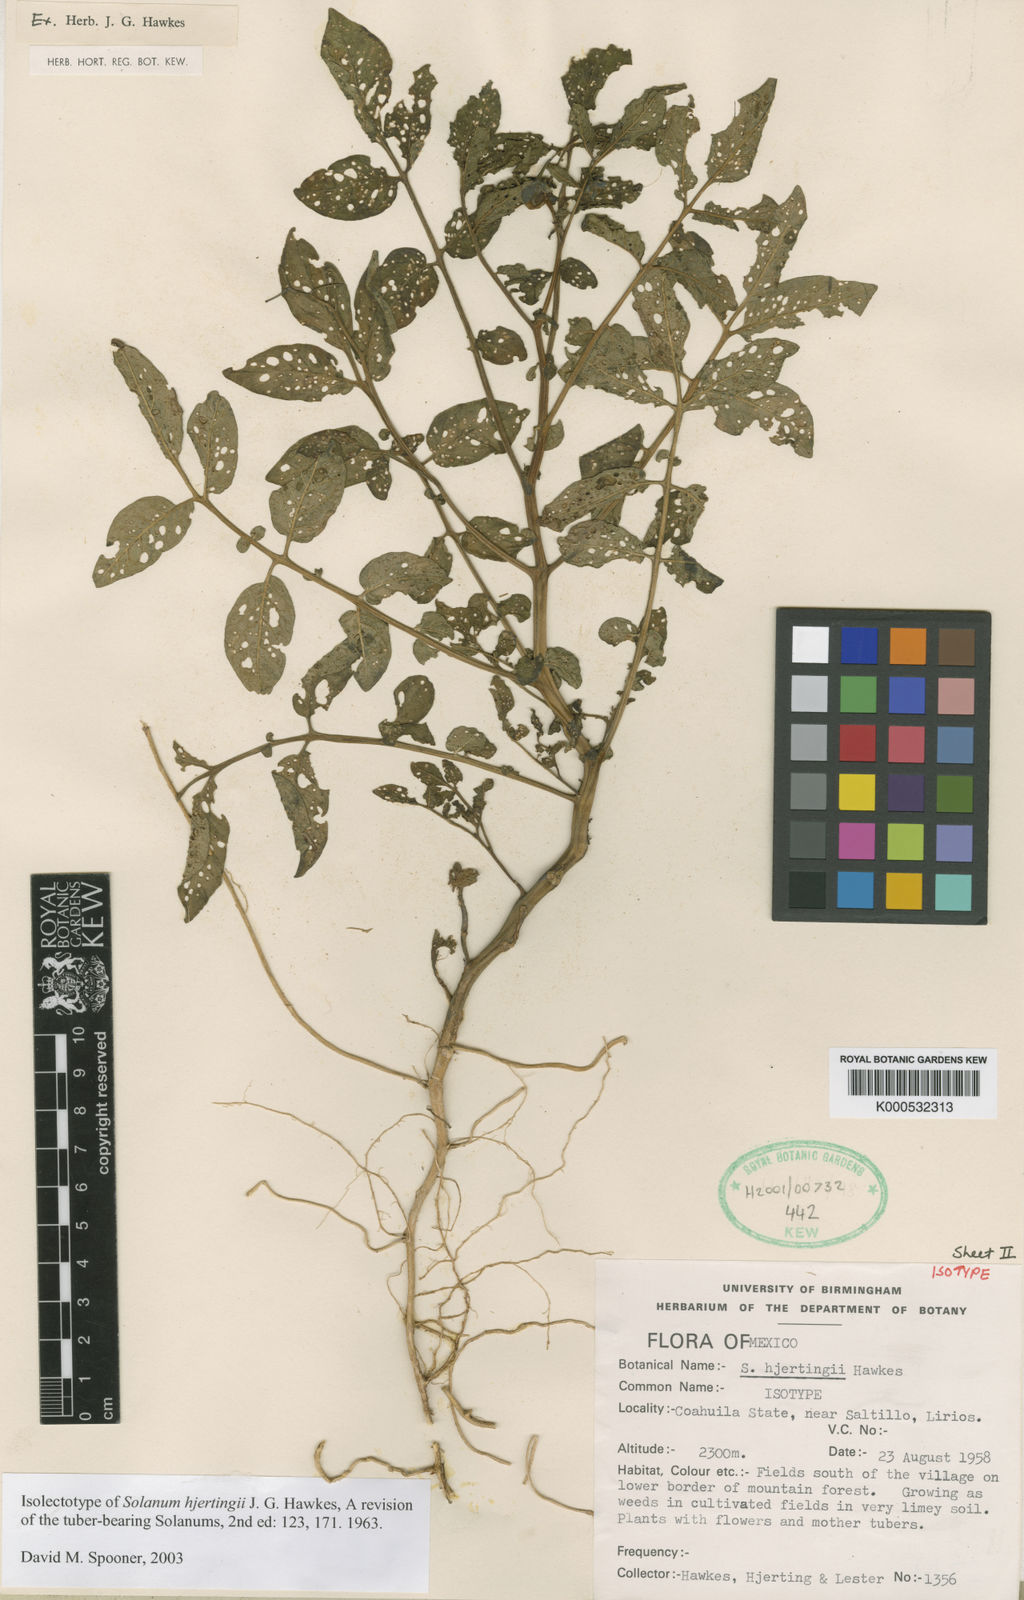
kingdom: Plantae
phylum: Tracheophyta
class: Magnoliopsida
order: Solanales
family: Solanaceae
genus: Solanum
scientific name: Solanum hjertingii
